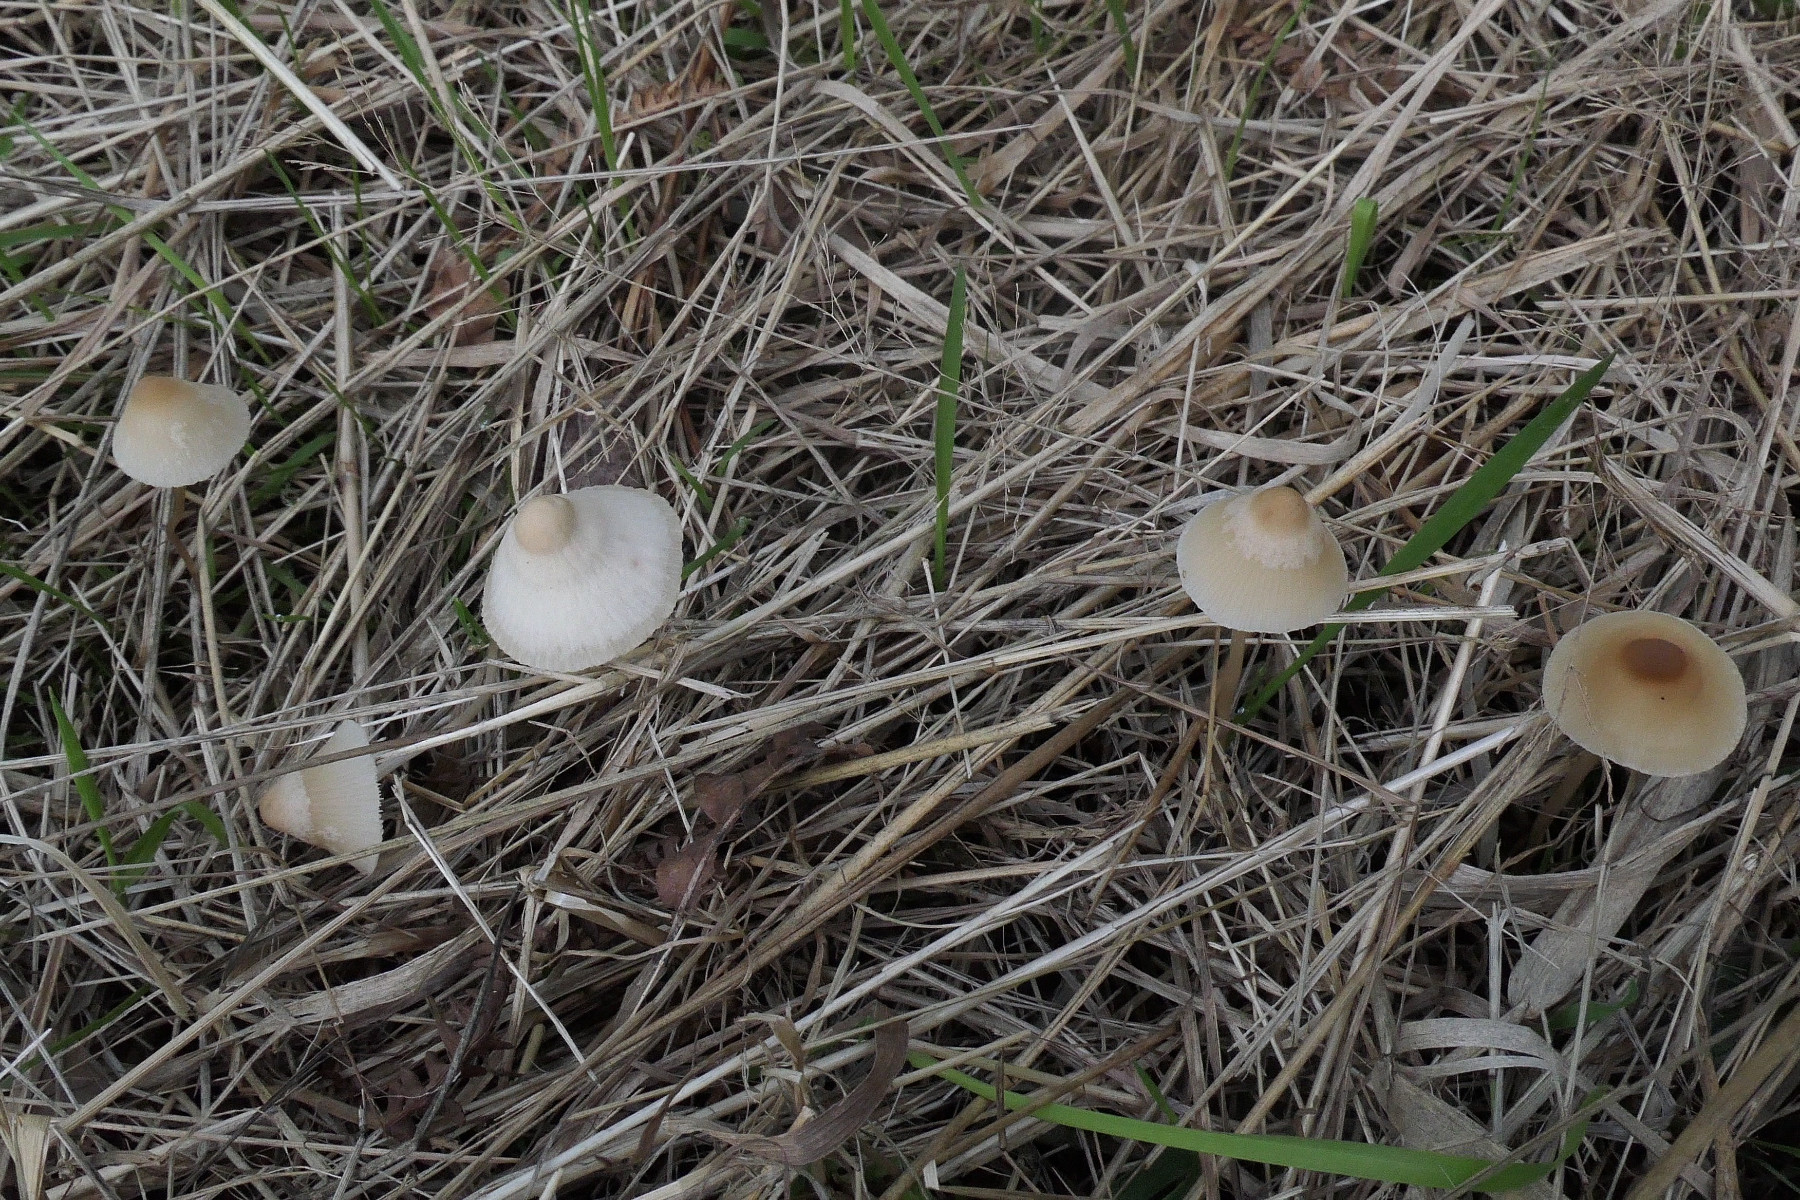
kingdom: Fungi
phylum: Basidiomycota
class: Agaricomycetes
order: Agaricales
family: Psathyrellaceae
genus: Psathyrella
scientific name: Psathyrella corrugis
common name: rødægget mørkhat
